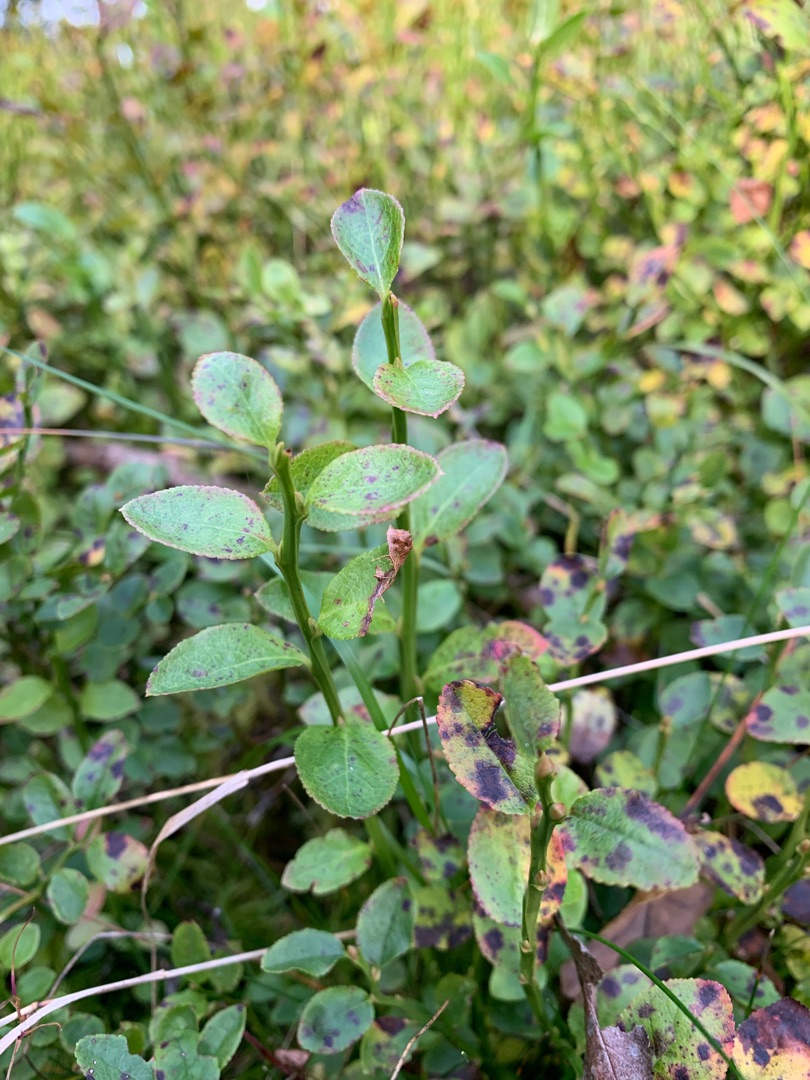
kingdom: Plantae
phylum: Tracheophyta
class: Magnoliopsida
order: Ericales
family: Ericaceae
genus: Vaccinium
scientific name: Vaccinium myrtillus
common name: Blåbær
